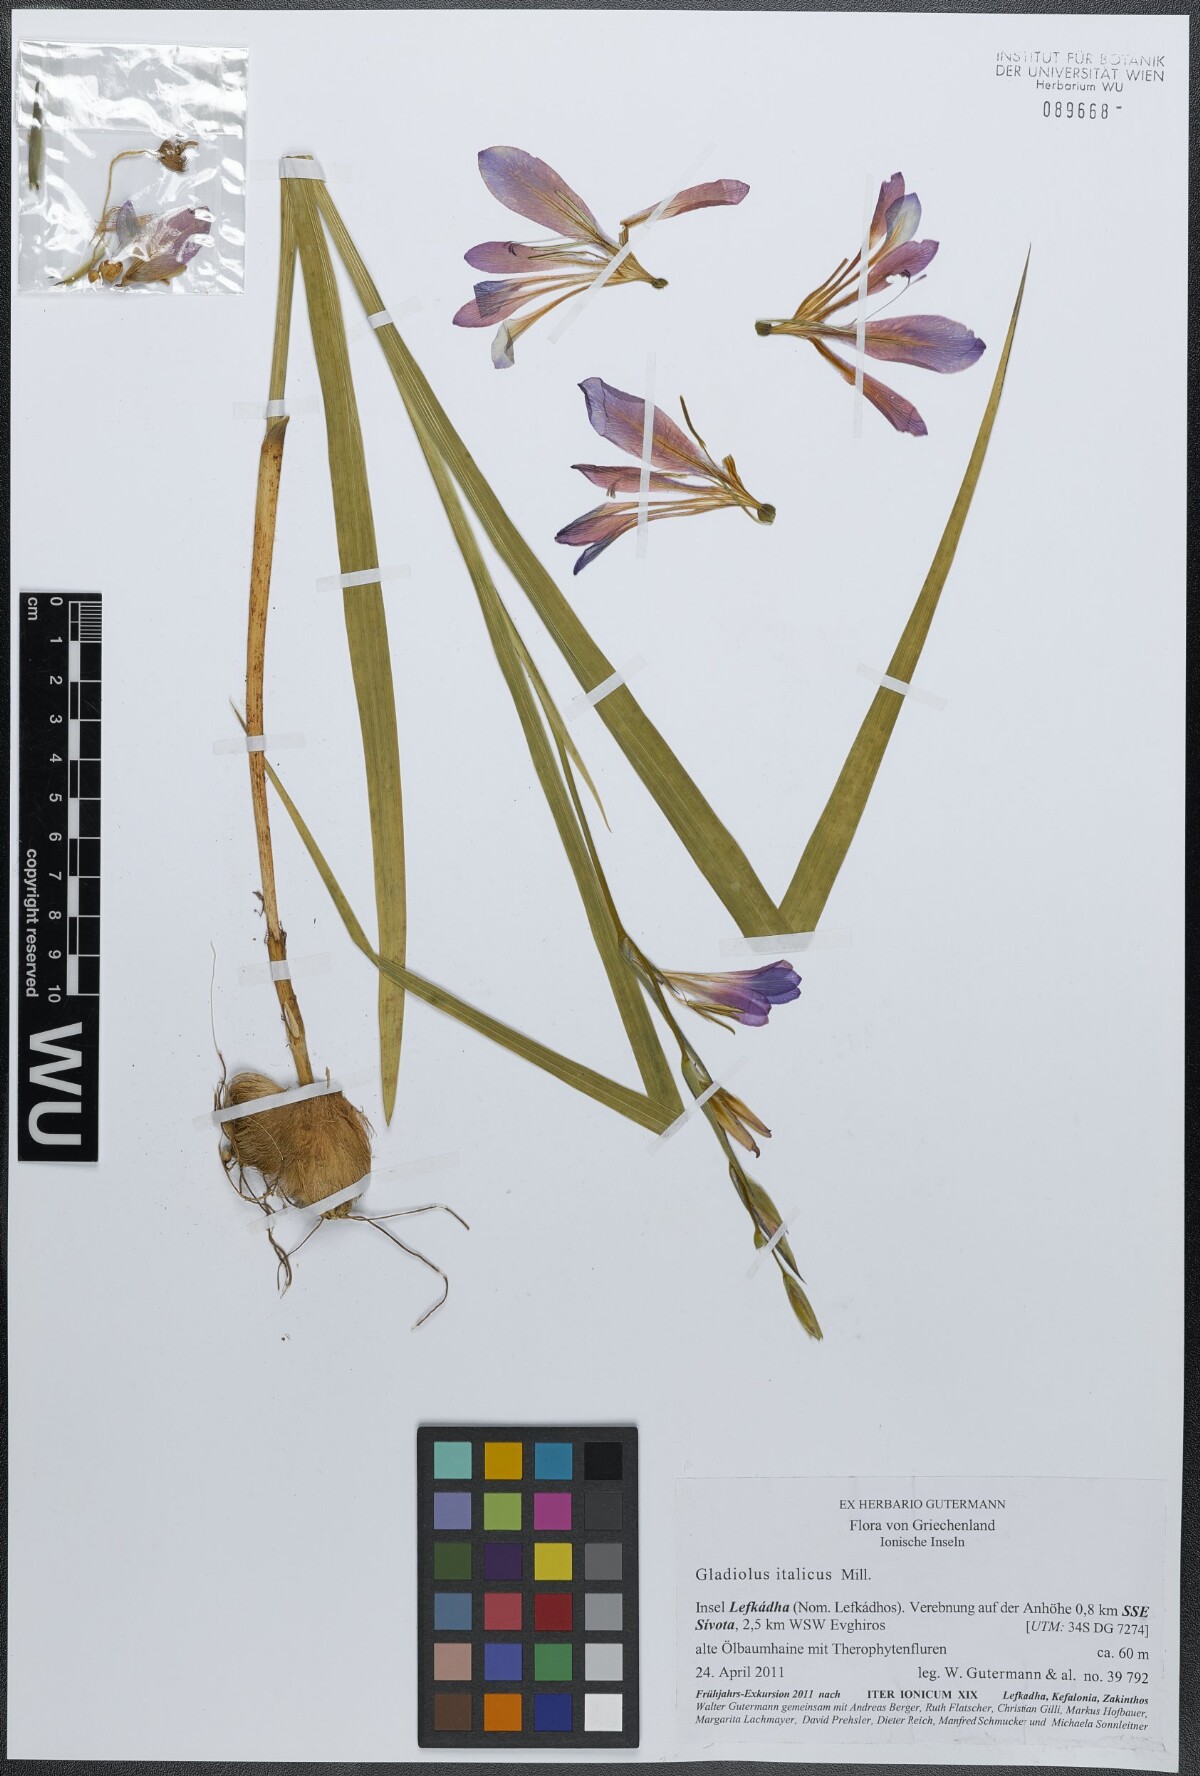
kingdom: Plantae
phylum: Tracheophyta
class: Liliopsida
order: Asparagales
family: Iridaceae
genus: Gladiolus
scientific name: Gladiolus italicus
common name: Field gladiolus
